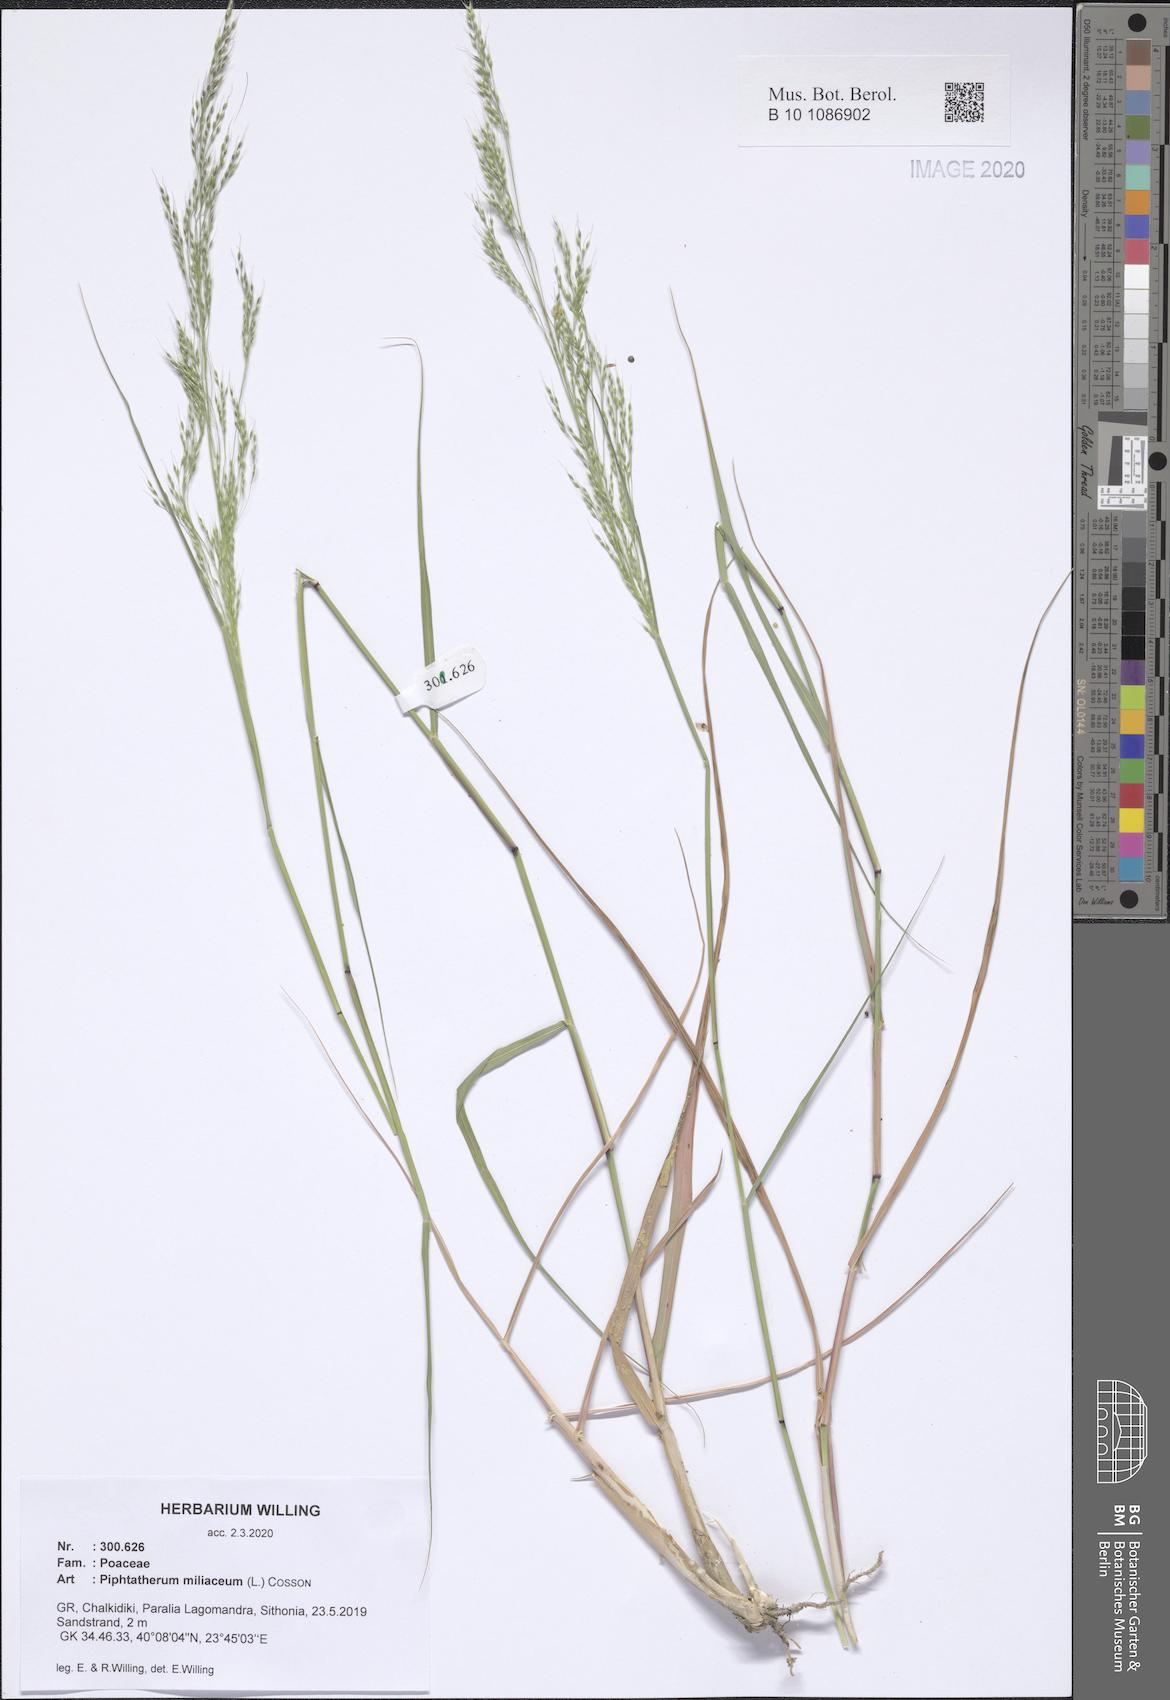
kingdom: Plantae
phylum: Tracheophyta
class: Liliopsida
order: Poales
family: Poaceae
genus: Oloptum
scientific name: Oloptum miliaceum
